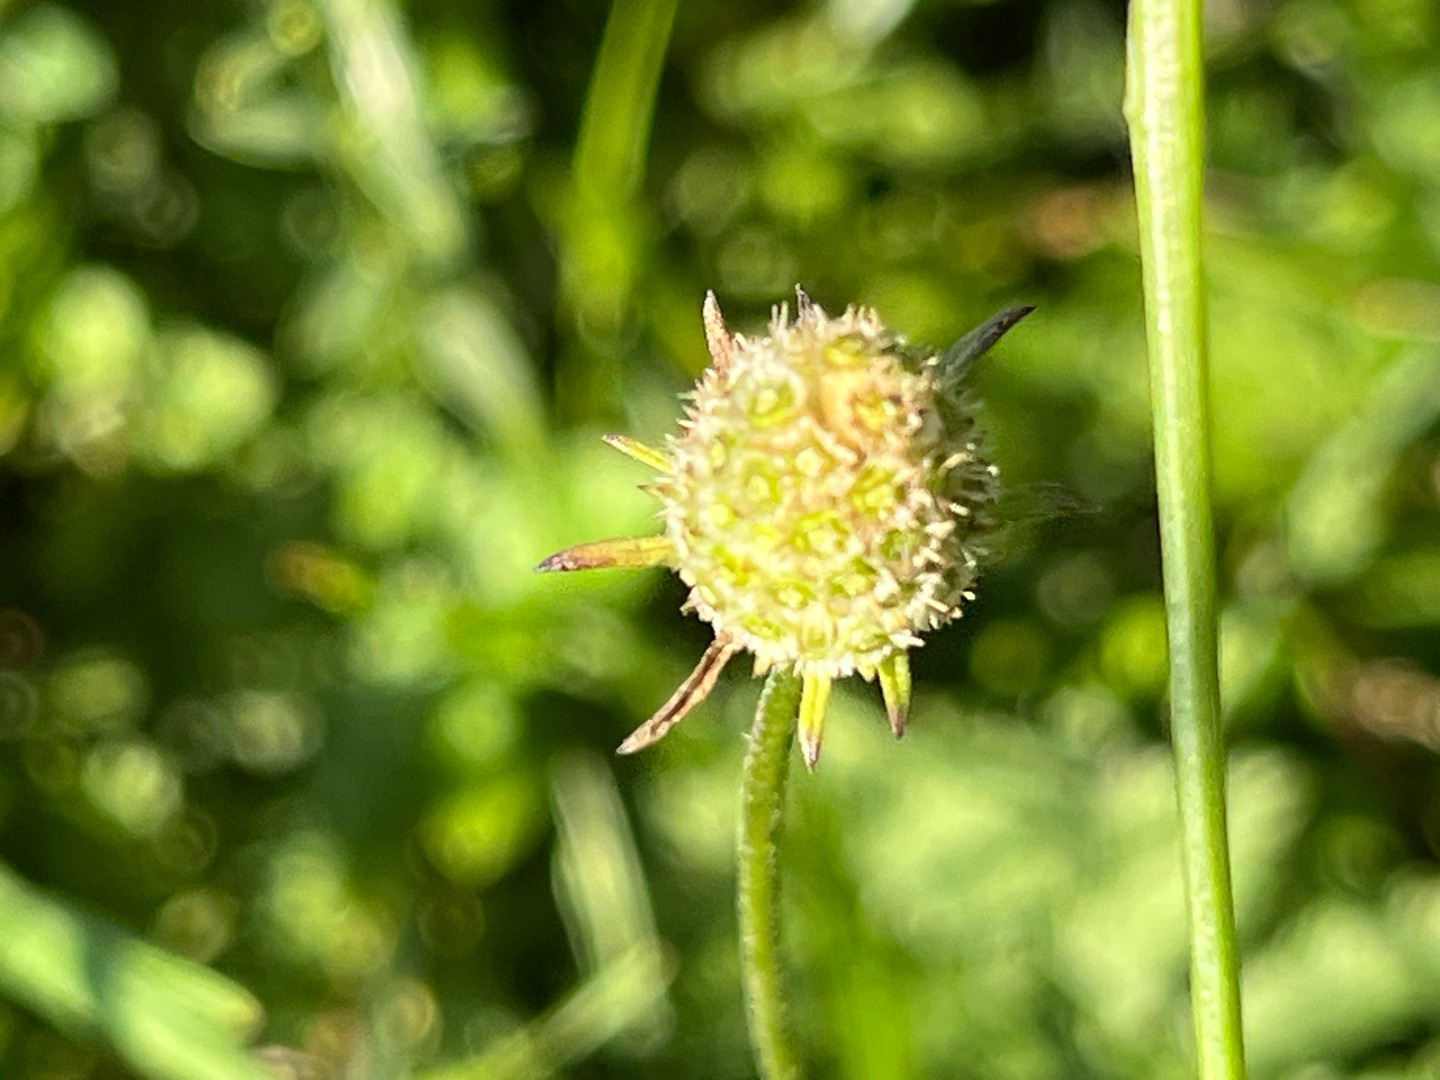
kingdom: Plantae
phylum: Tracheophyta
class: Magnoliopsida
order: Dipsacales
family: Caprifoliaceae
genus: Scabiosa
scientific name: Scabiosa canescens
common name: Vellugtende skabiose
